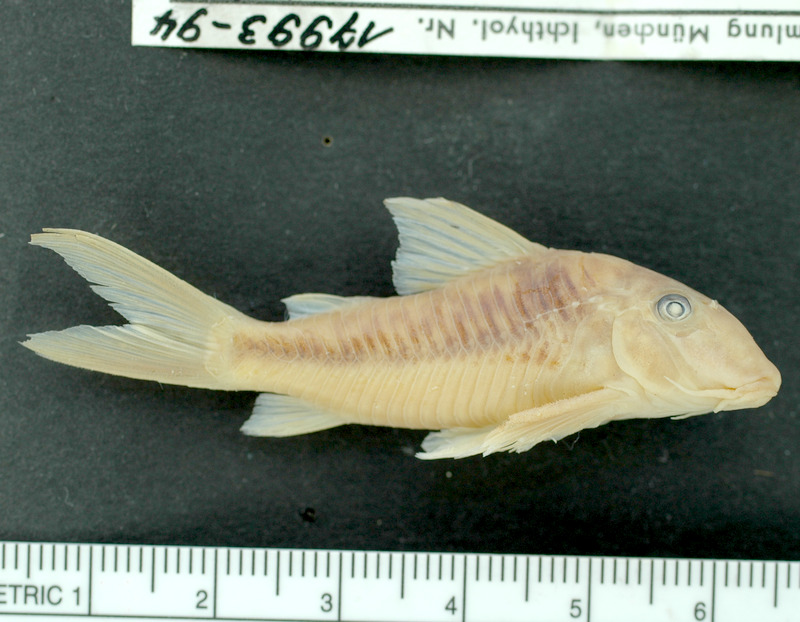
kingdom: Animalia
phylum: Chordata
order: Siluriformes
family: Callichthyidae
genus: Corydoras
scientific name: Corydoras treitlii
